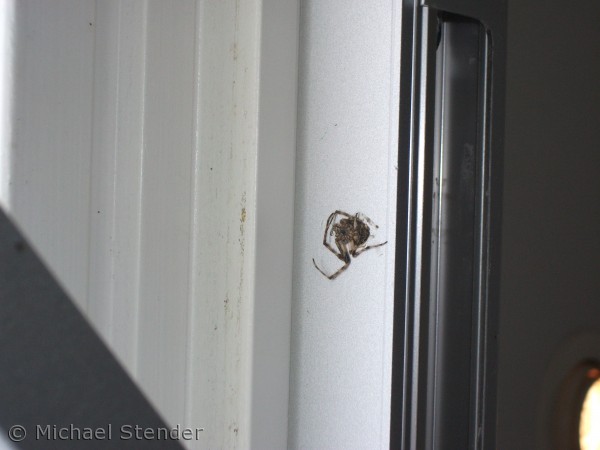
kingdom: Animalia
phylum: Arthropoda
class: Arachnida
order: Araneae
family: Araneidae
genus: Araneus
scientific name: Araneus diadematus
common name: Korsedderkop
